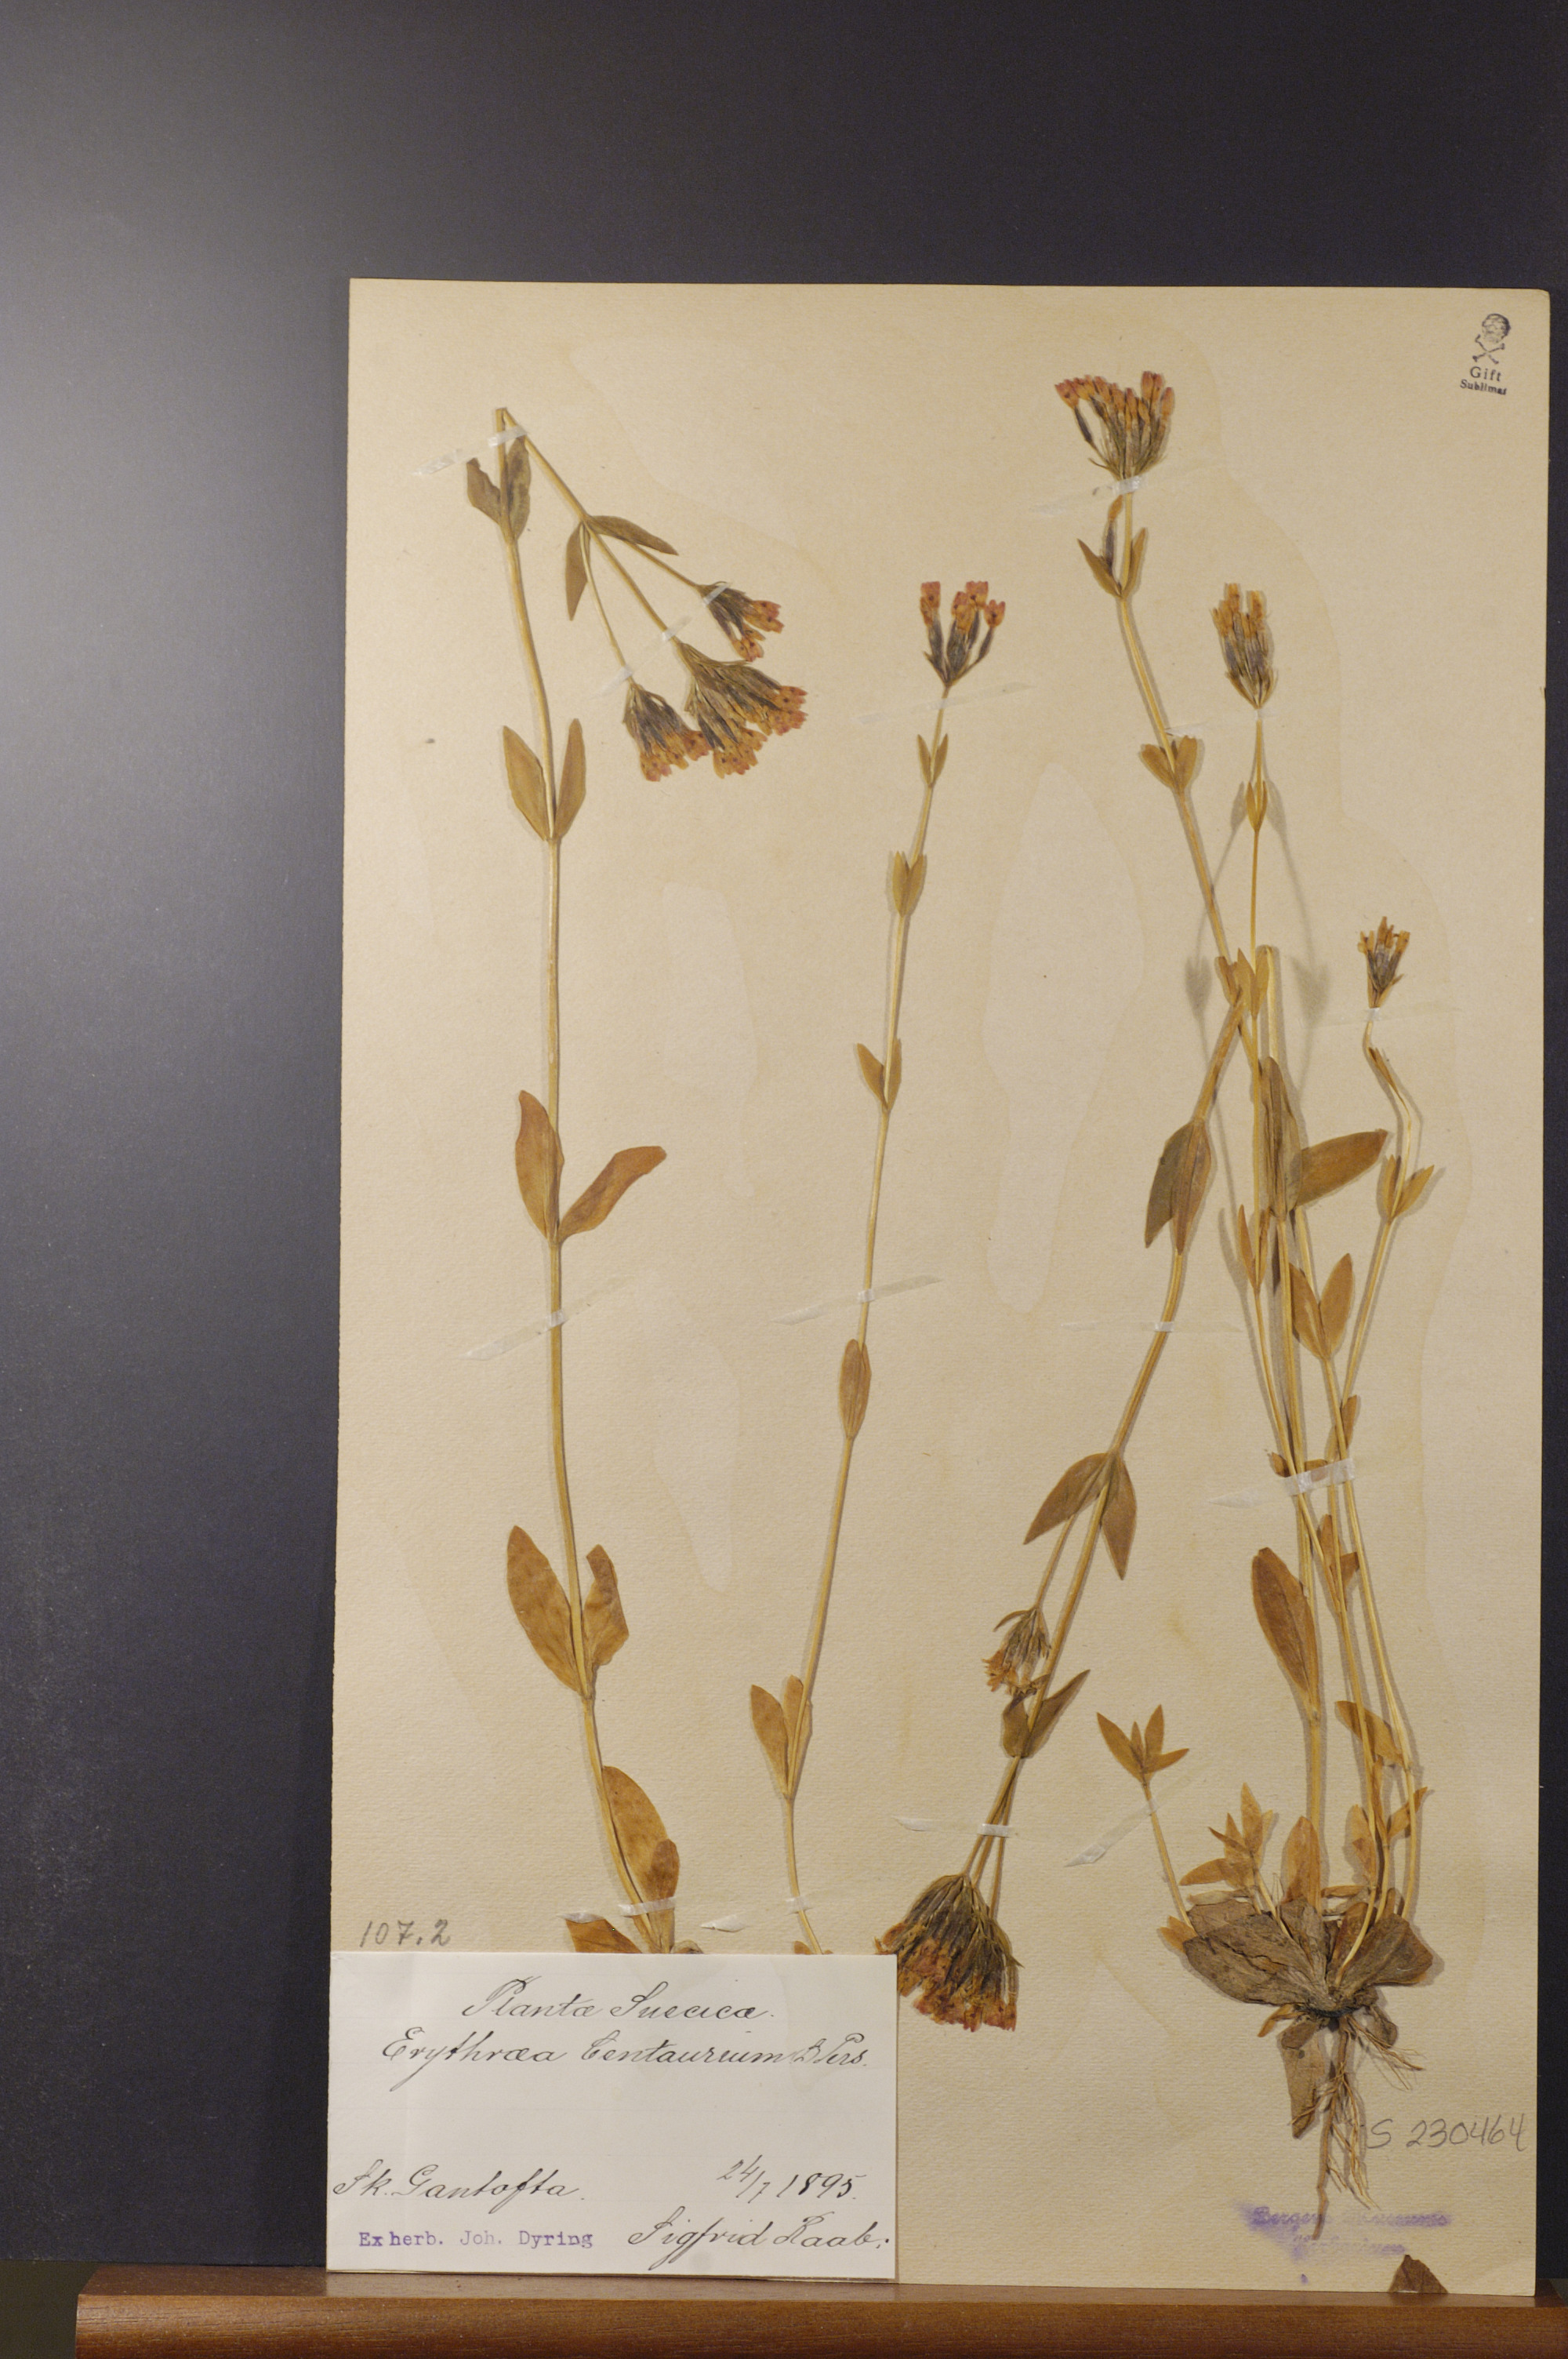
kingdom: Plantae
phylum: Tracheophyta
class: Magnoliopsida
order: Gentianales
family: Gentianaceae
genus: Centaurium
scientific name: Centaurium erythraea
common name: Common centaury
